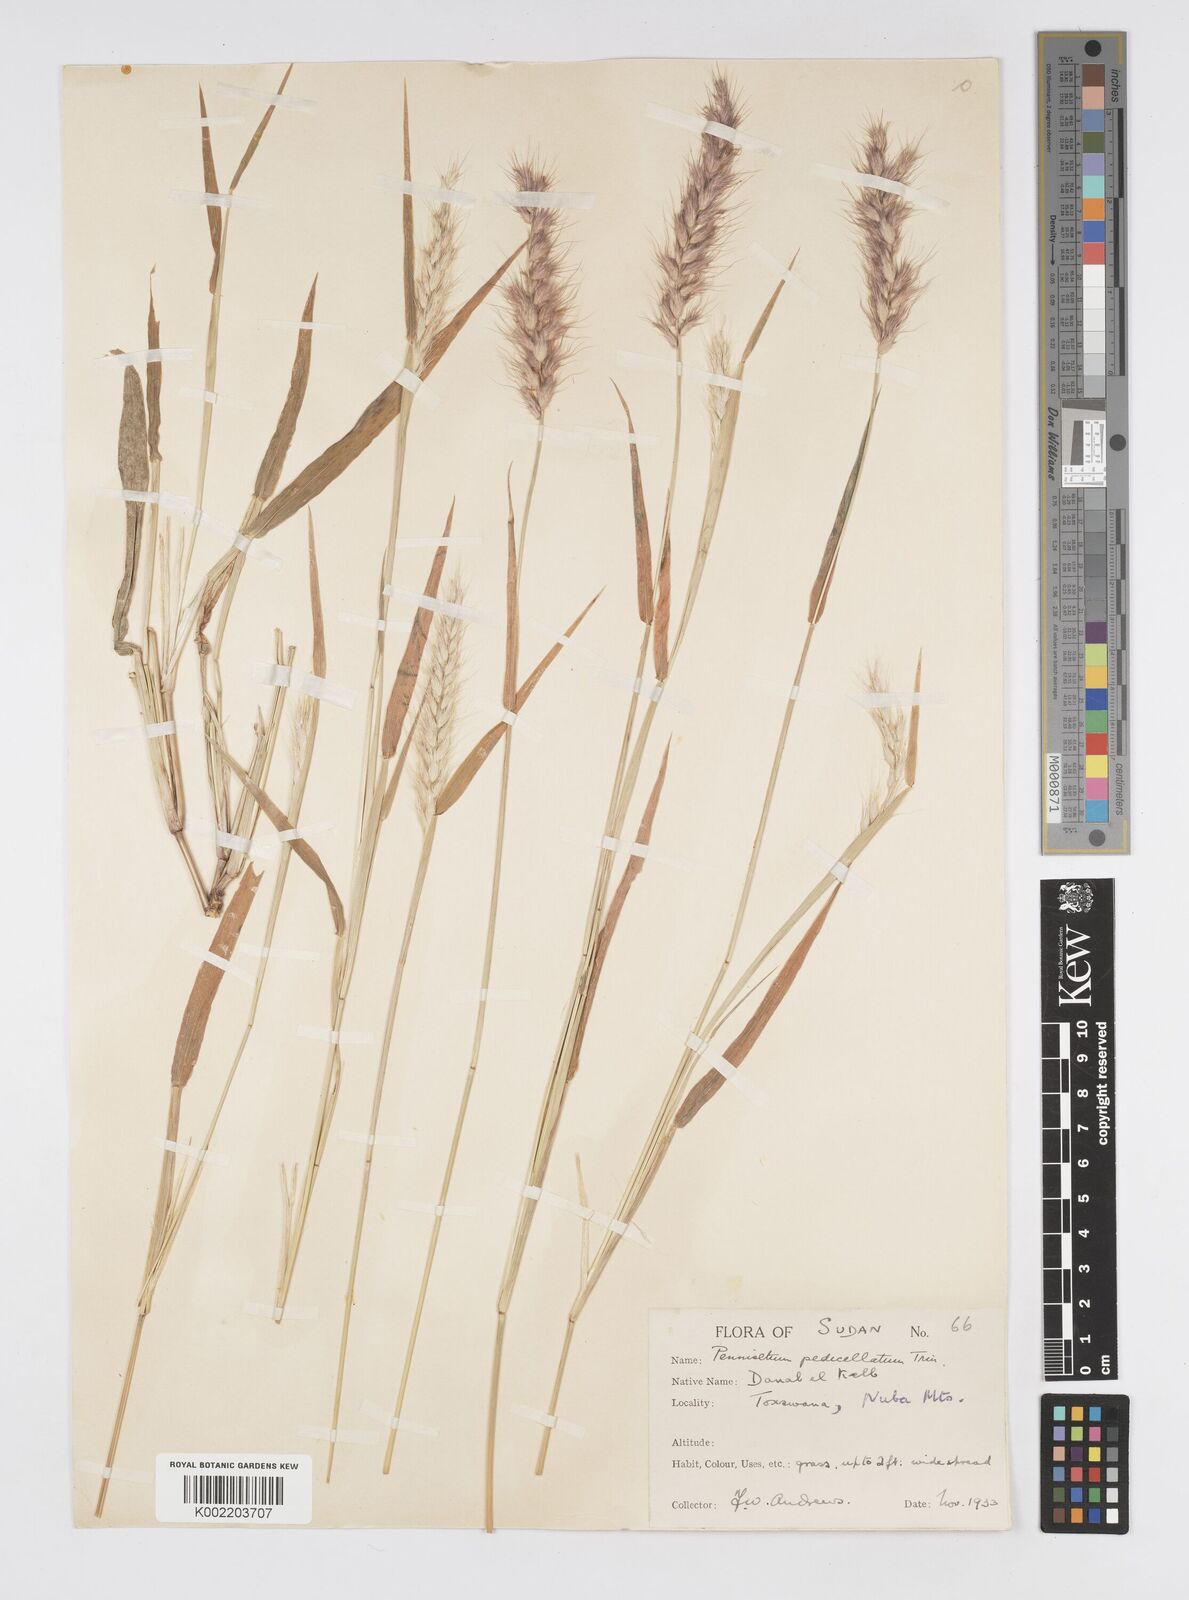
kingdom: Plantae
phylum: Tracheophyta
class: Liliopsida
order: Poales
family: Poaceae
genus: Cenchrus
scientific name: Cenchrus pedicellatus
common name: Hairy fountain grass
